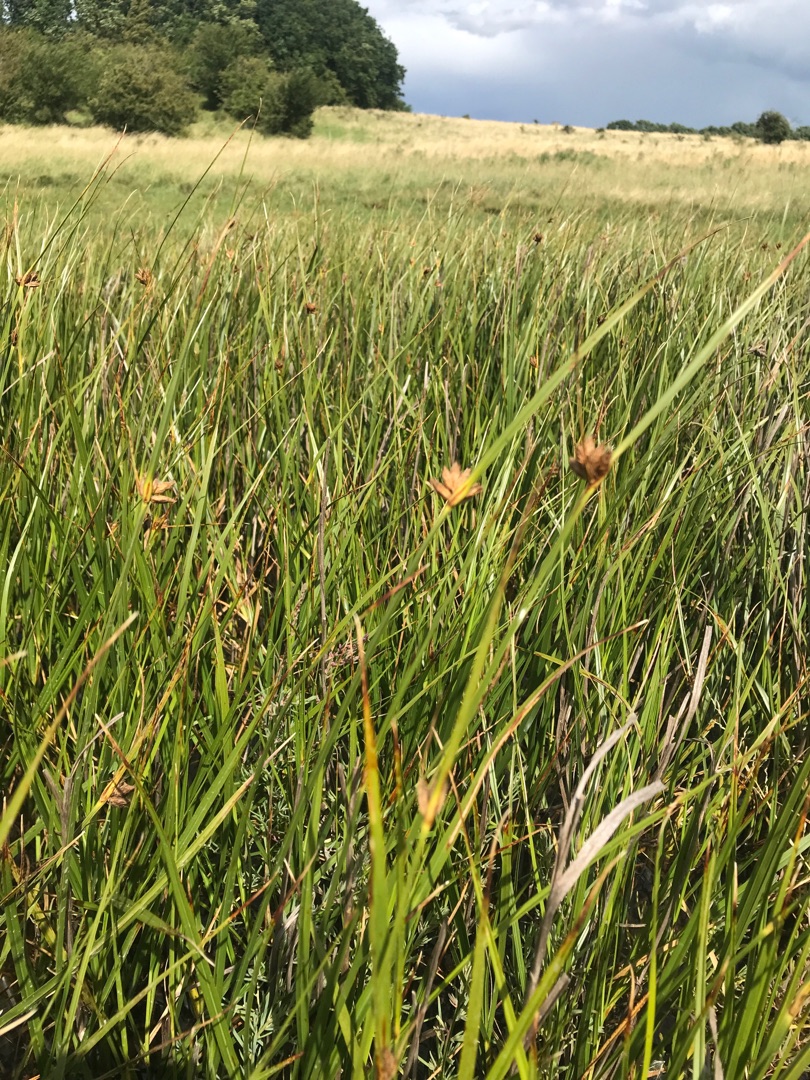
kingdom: Plantae
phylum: Tracheophyta
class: Liliopsida
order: Poales
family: Cyperaceae
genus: Bolboschoenus
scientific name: Bolboschoenus maritimus
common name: Strand-kogleaks
